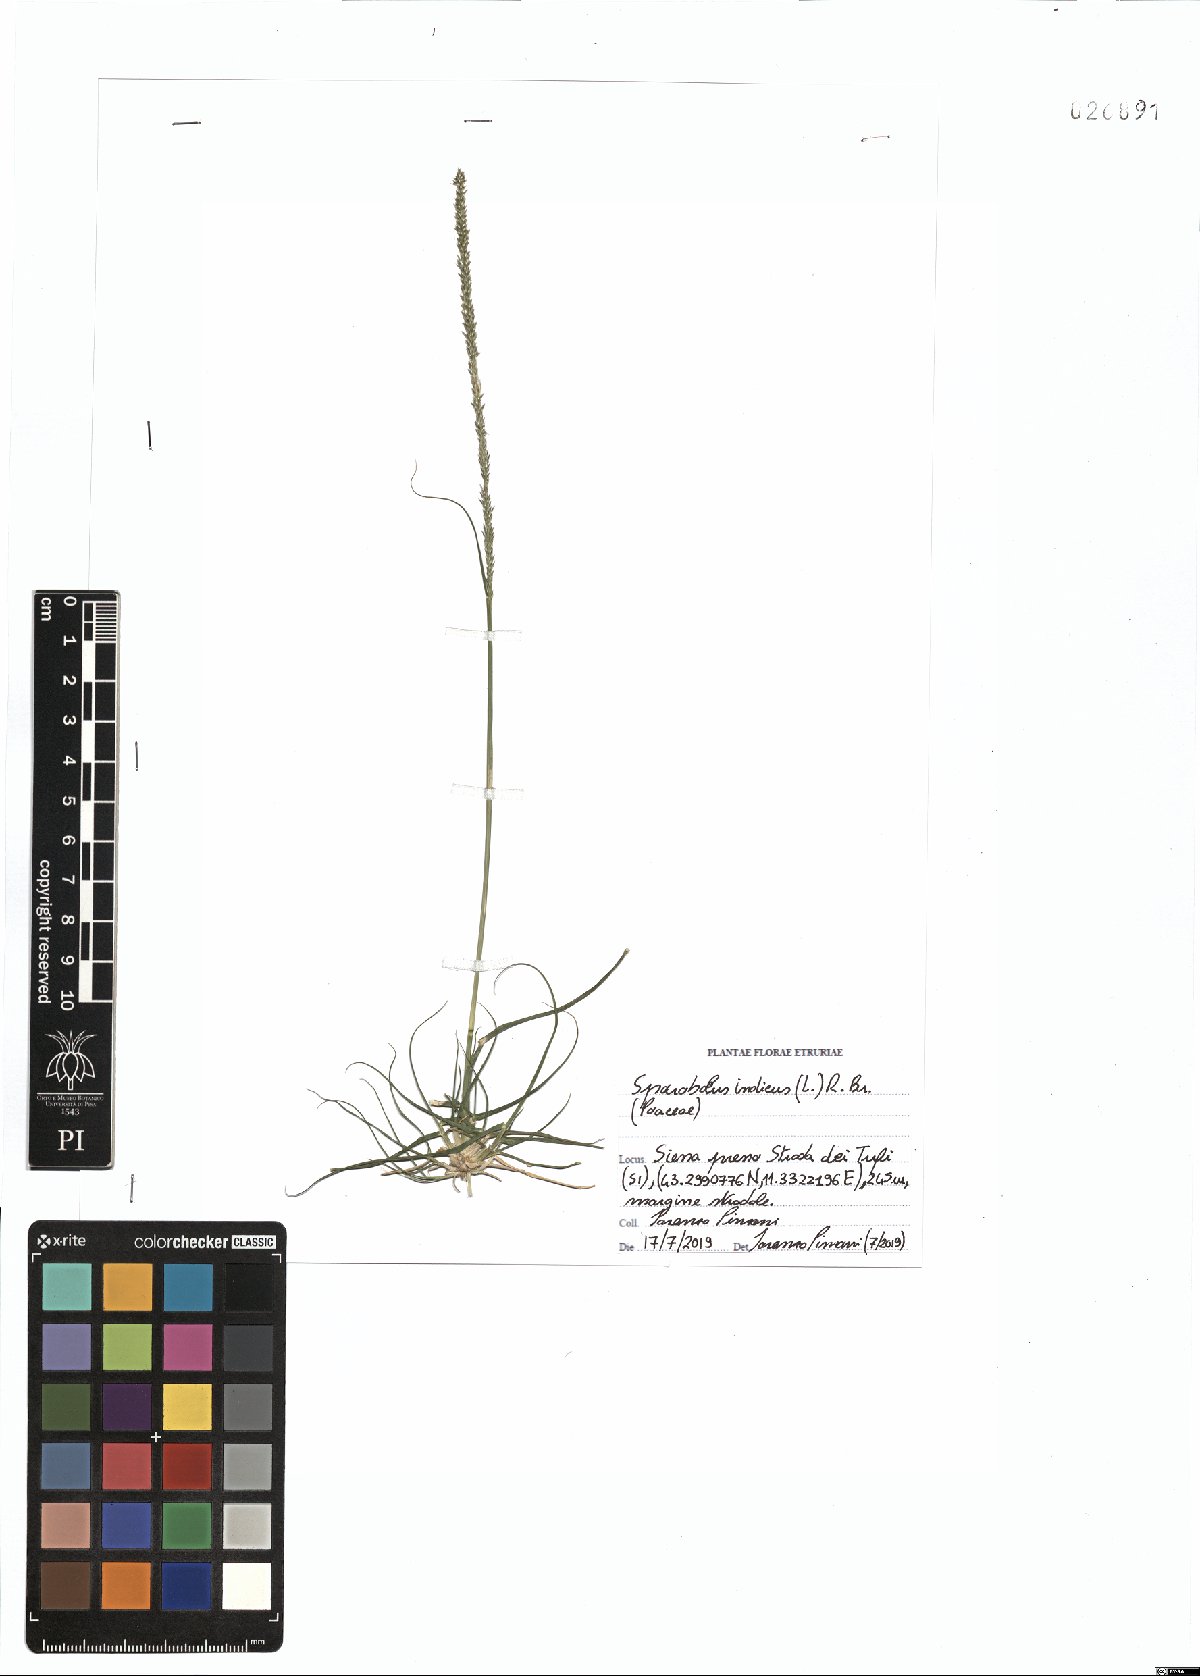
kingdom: Plantae
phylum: Tracheophyta
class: Liliopsida
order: Poales
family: Poaceae
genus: Sporobolus
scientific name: Sporobolus indicus
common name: Smut grass
